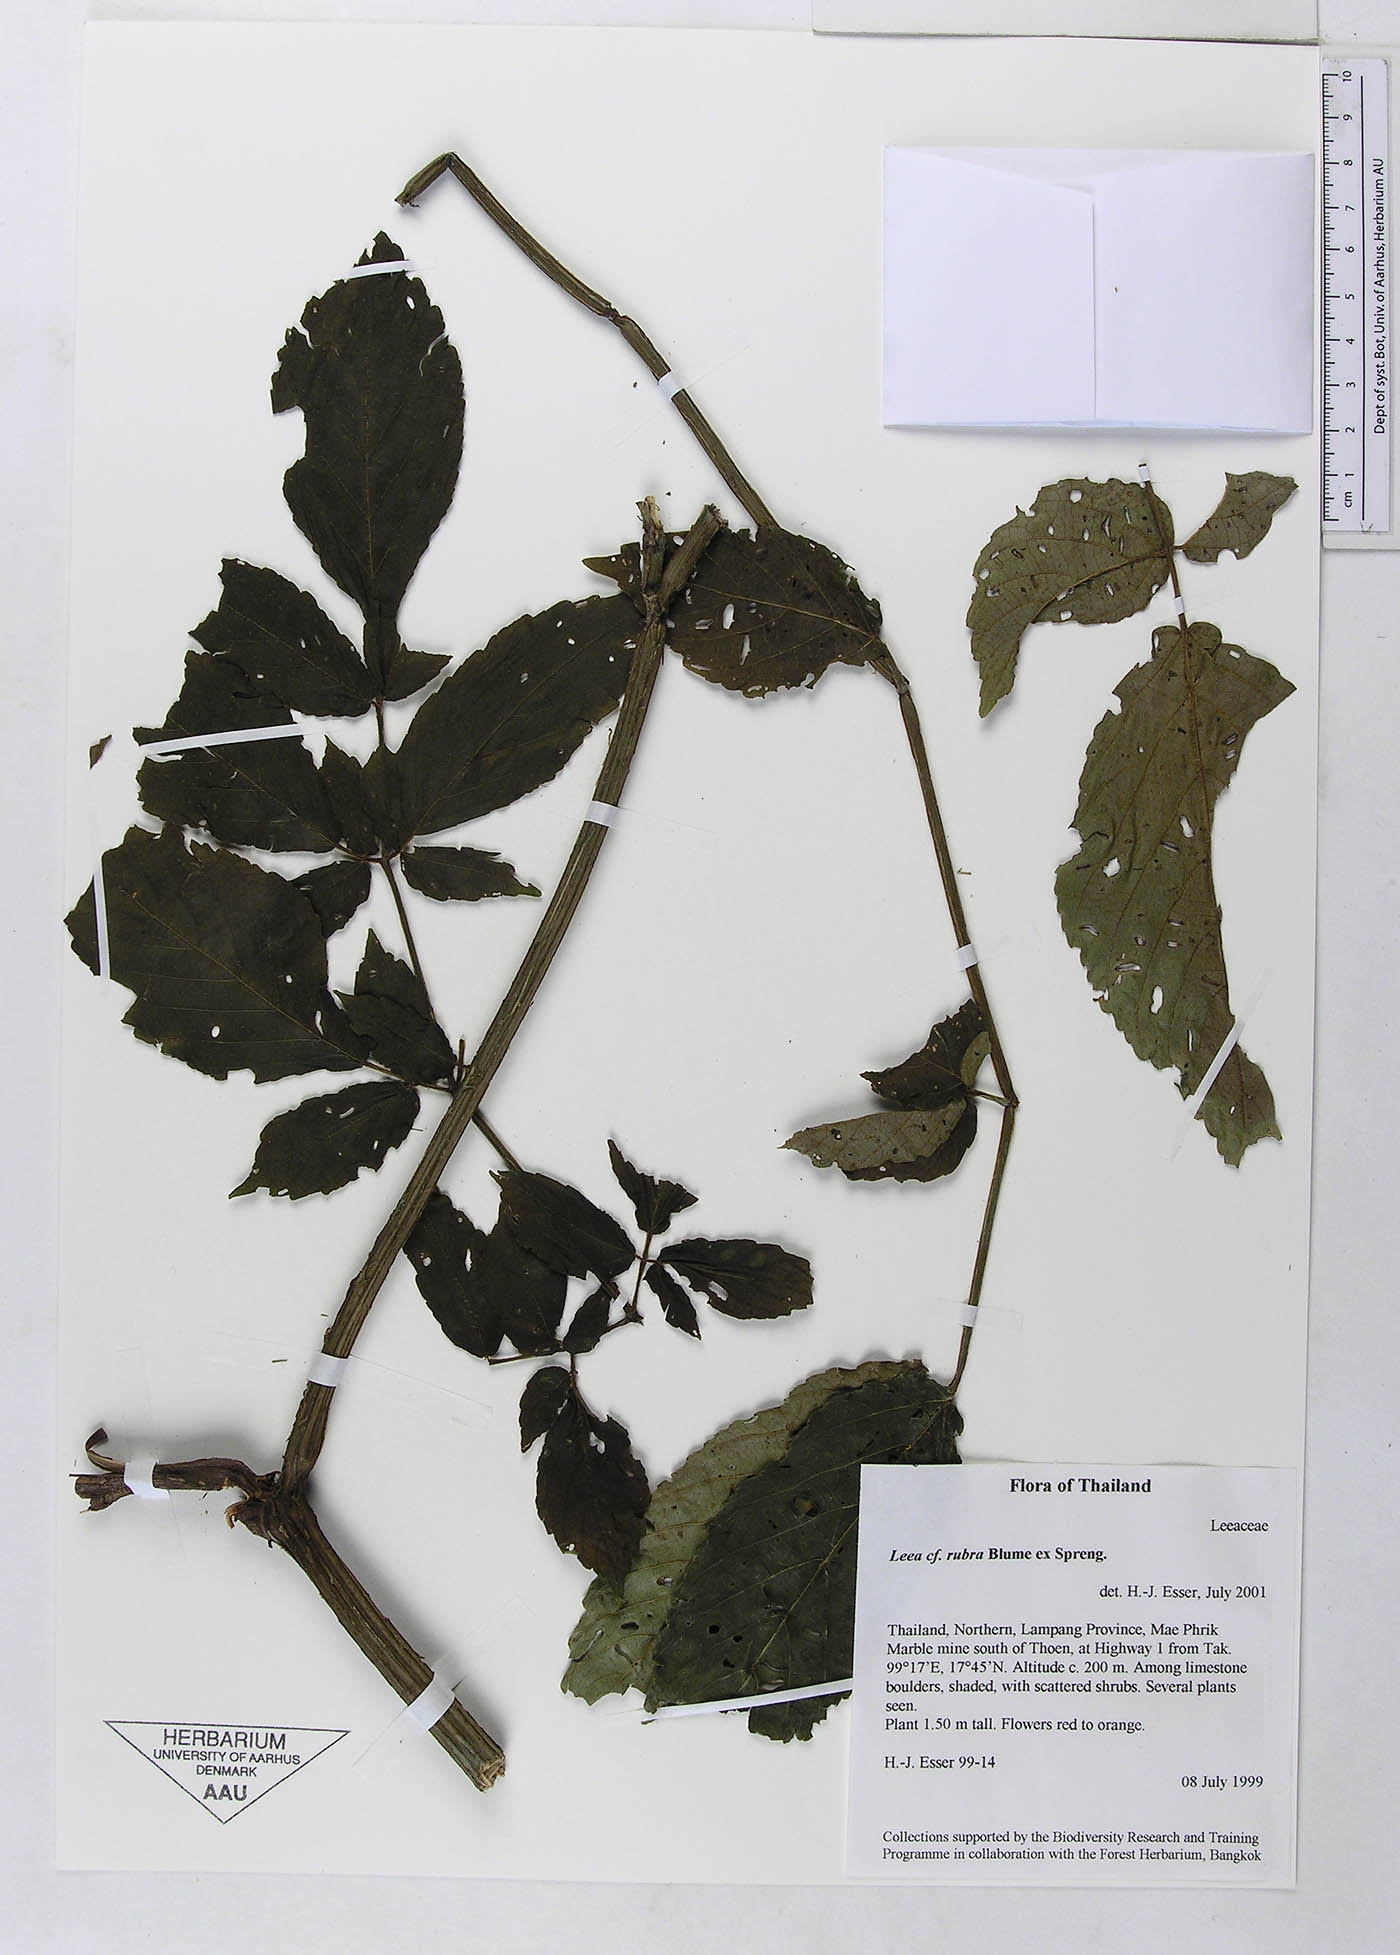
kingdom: Plantae
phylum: Tracheophyta
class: Magnoliopsida
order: Vitales
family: Vitaceae
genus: Leea
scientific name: Leea setuligera
